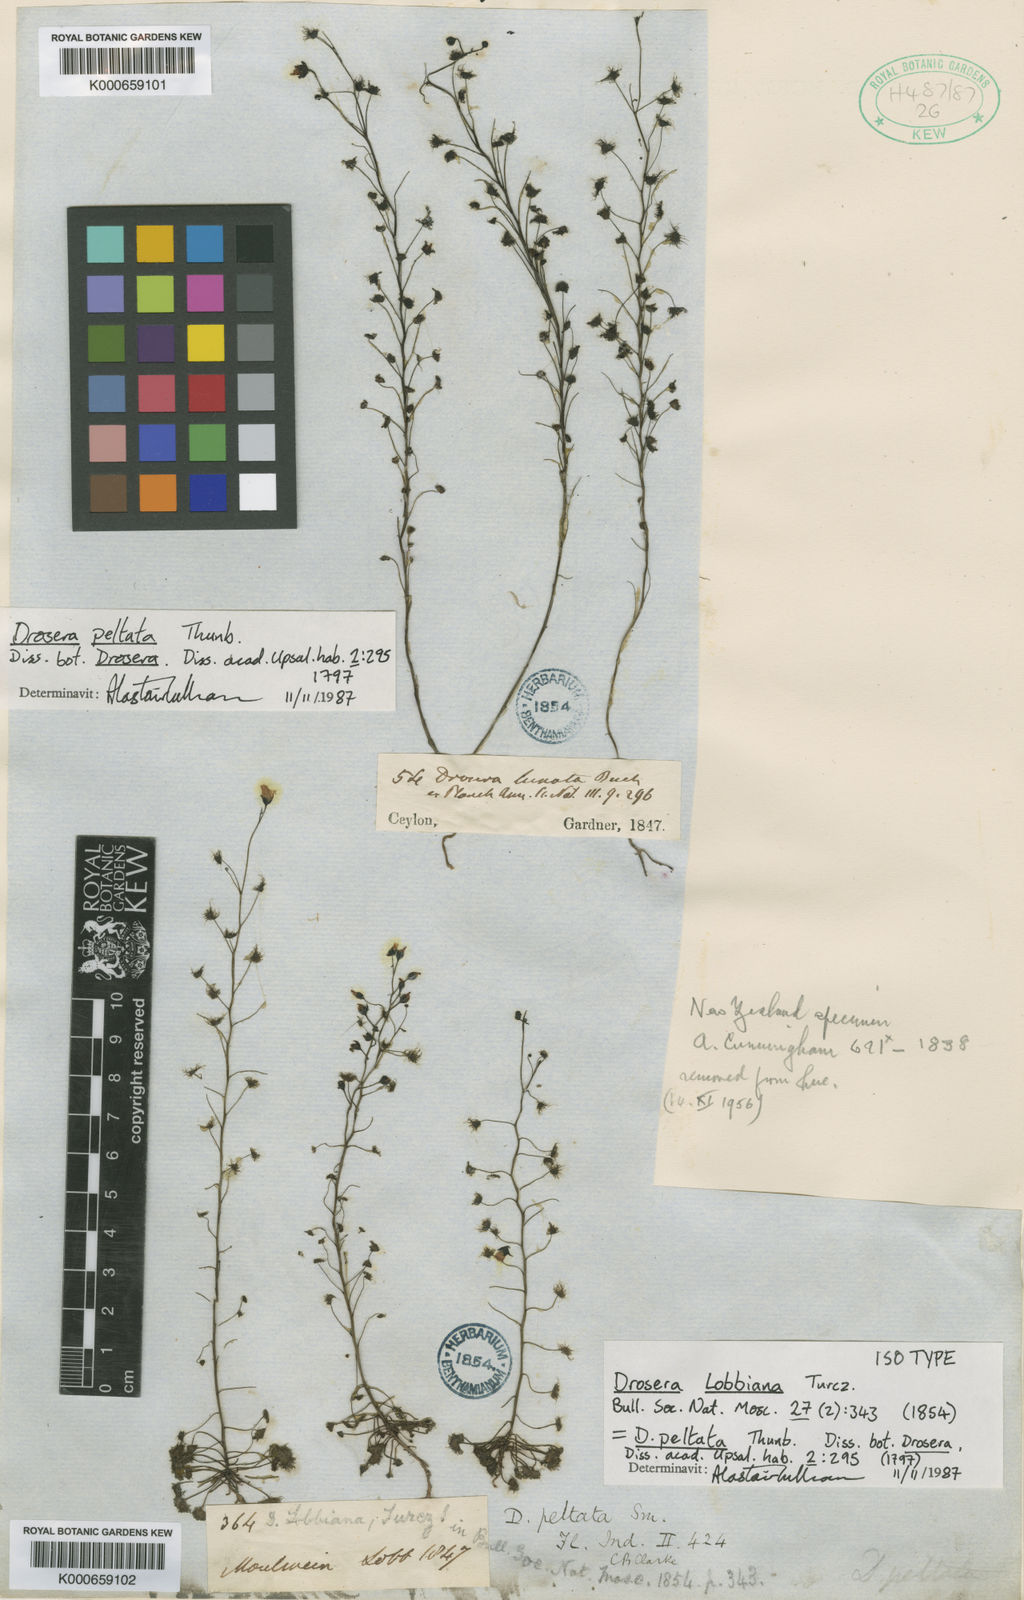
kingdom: Plantae
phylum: Tracheophyta
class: Magnoliopsida
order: Caryophyllales
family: Droseraceae
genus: Drosera
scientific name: Drosera peltata
